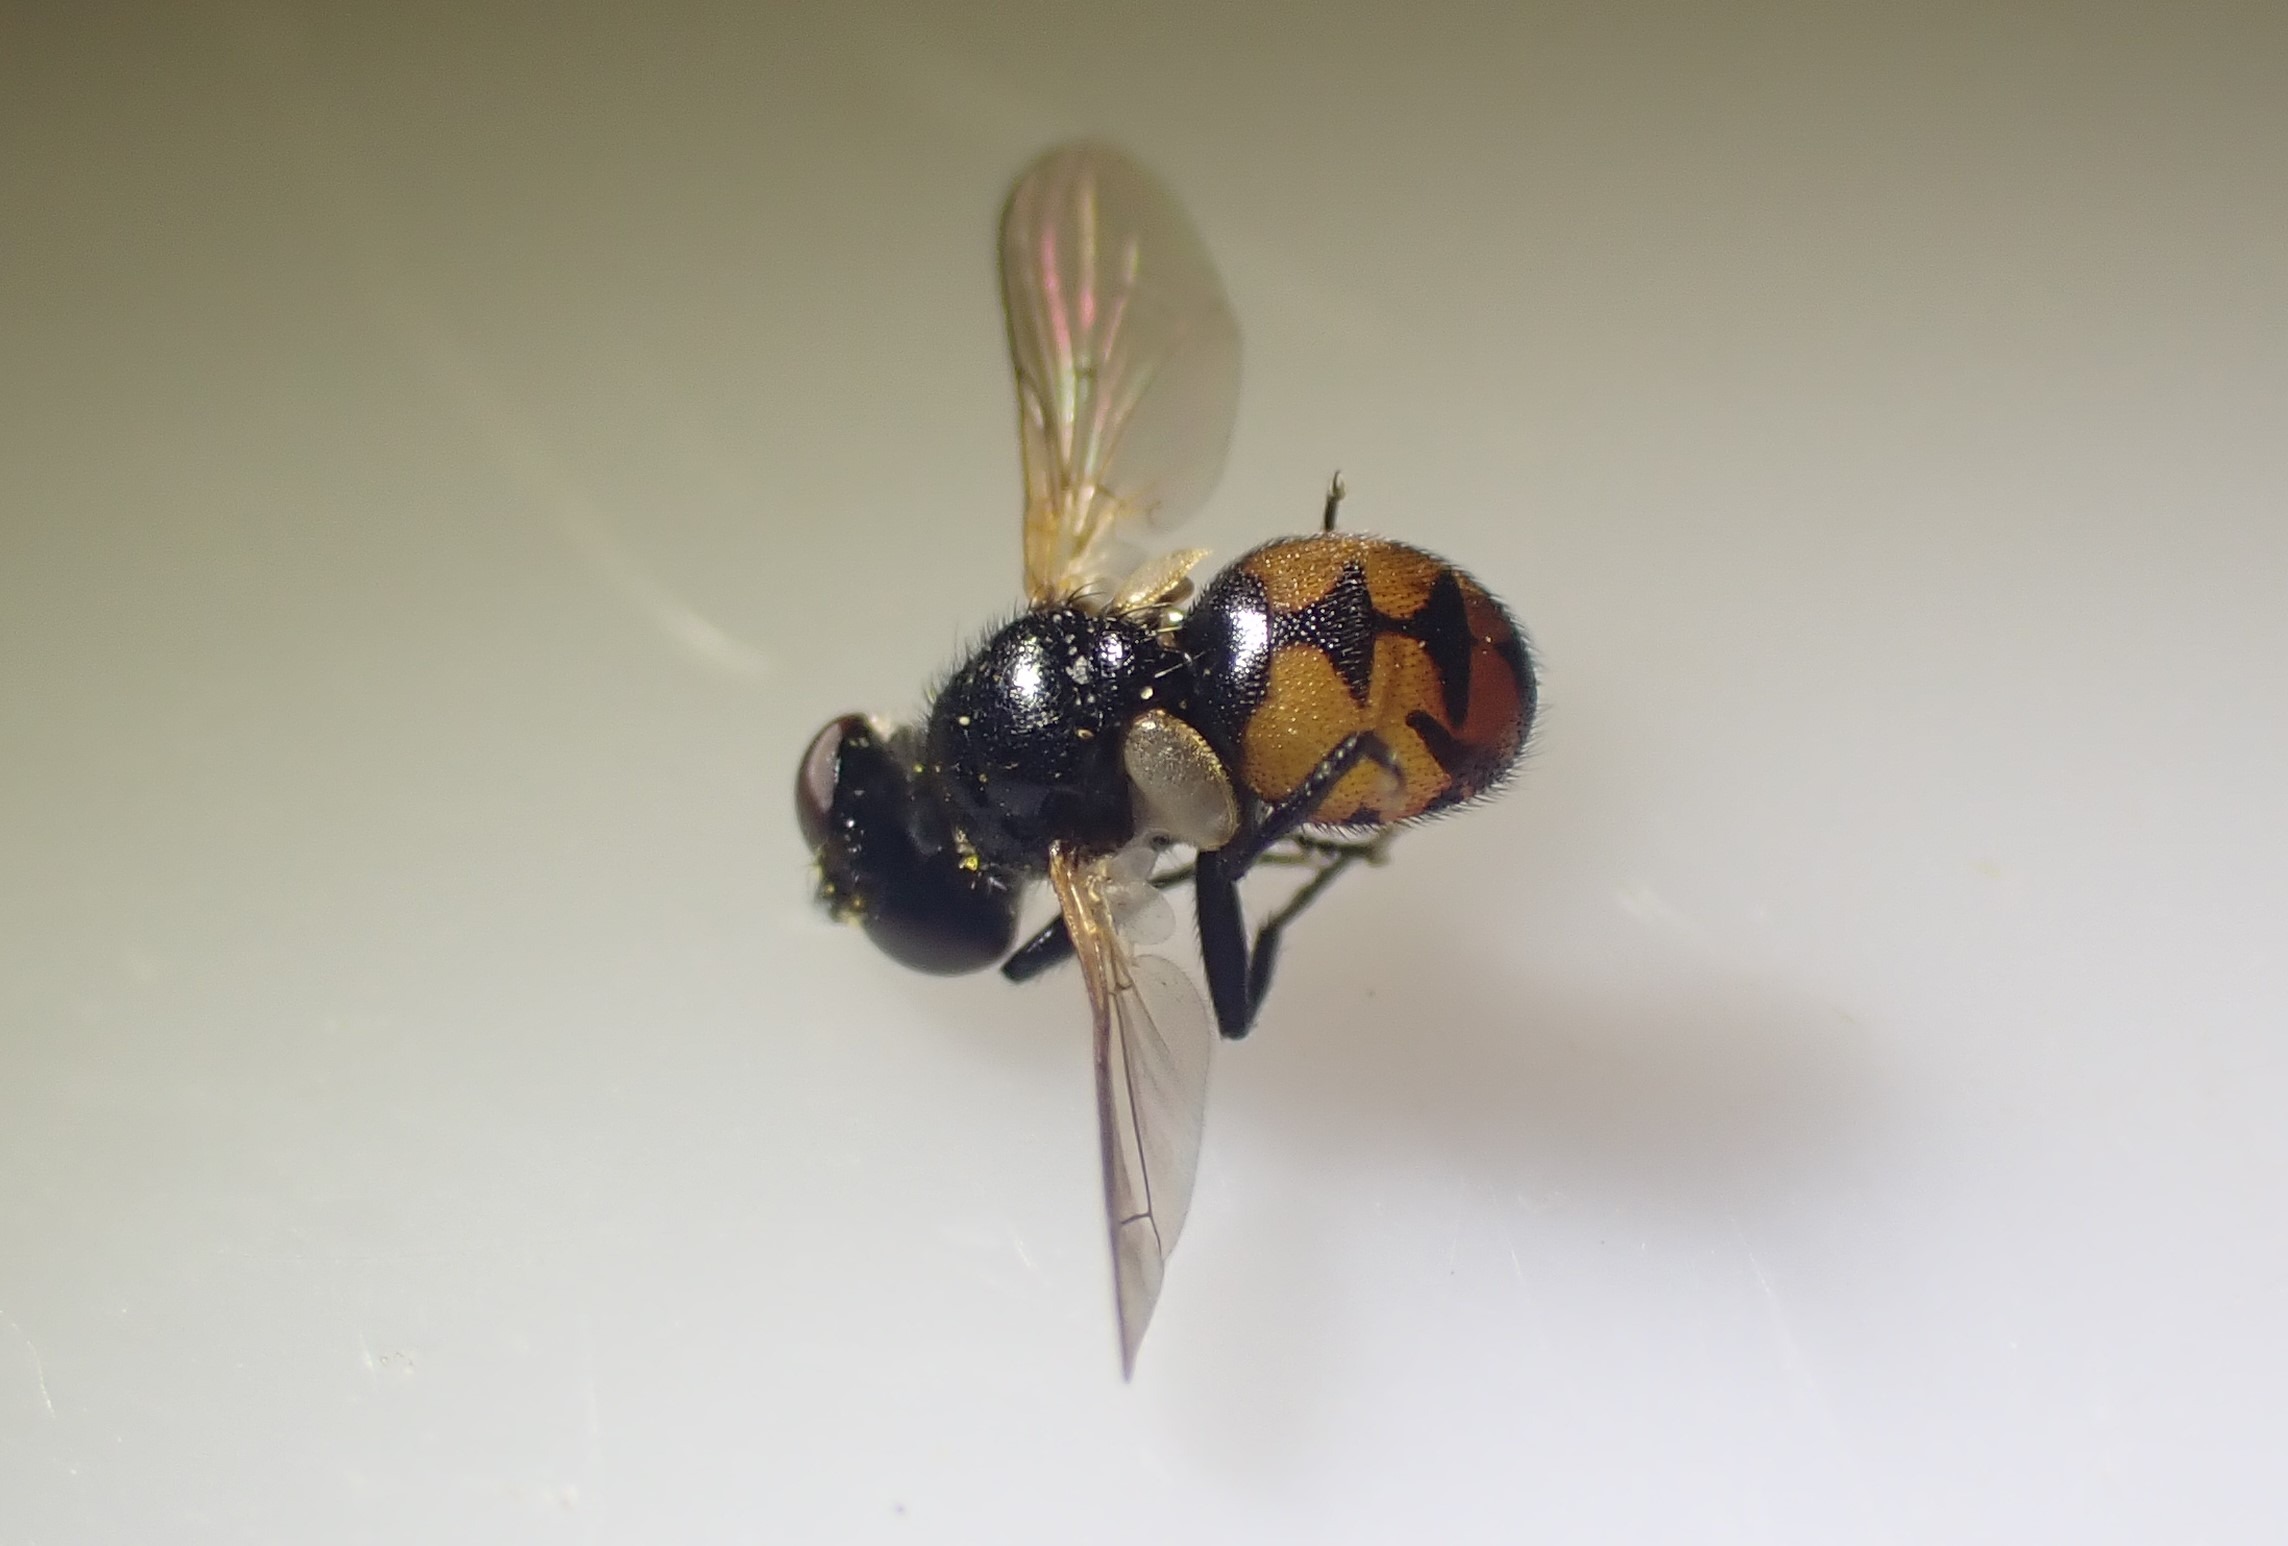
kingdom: Animalia
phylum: Arthropoda
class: Insecta
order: Diptera
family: Tachinidae
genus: Gymnosoma
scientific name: Gymnosoma nitens
